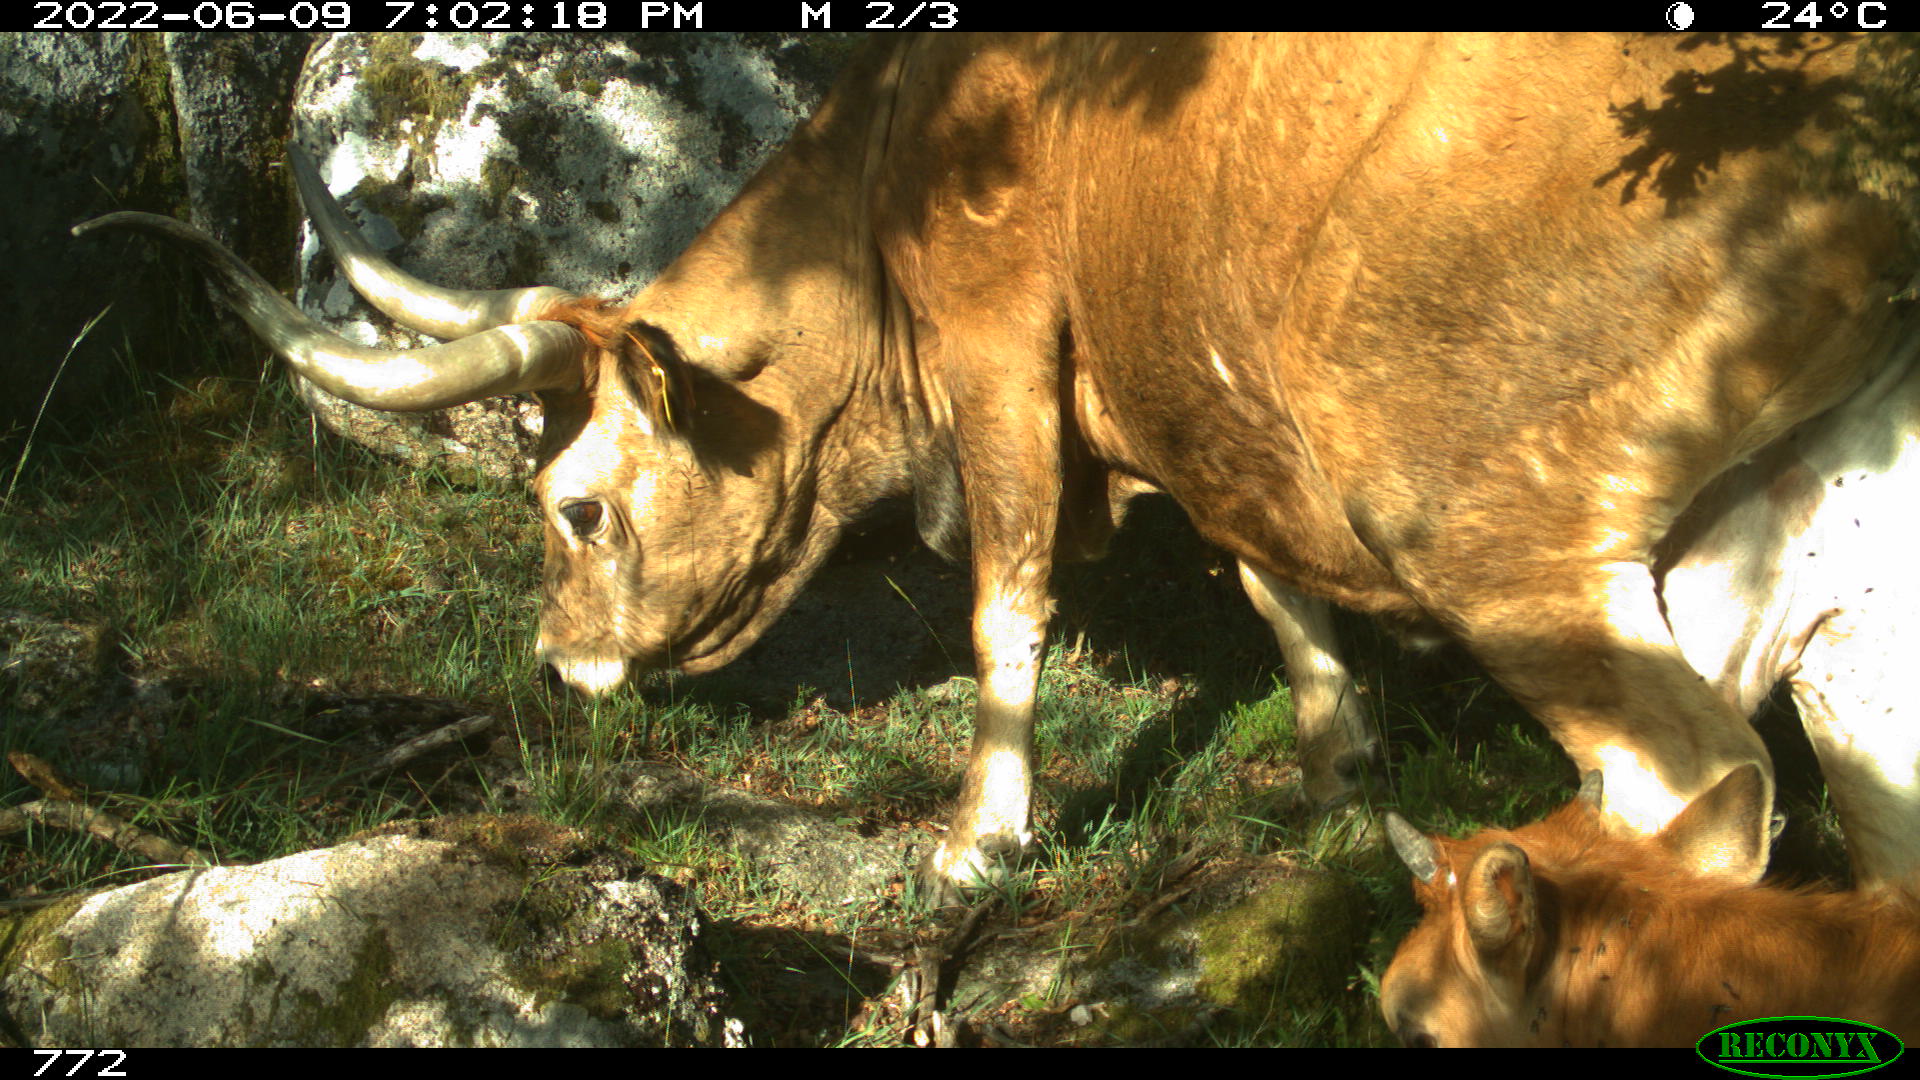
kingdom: Animalia
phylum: Chordata
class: Mammalia
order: Artiodactyla
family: Bovidae
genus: Bos
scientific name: Bos taurus
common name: Domesticated cattle
